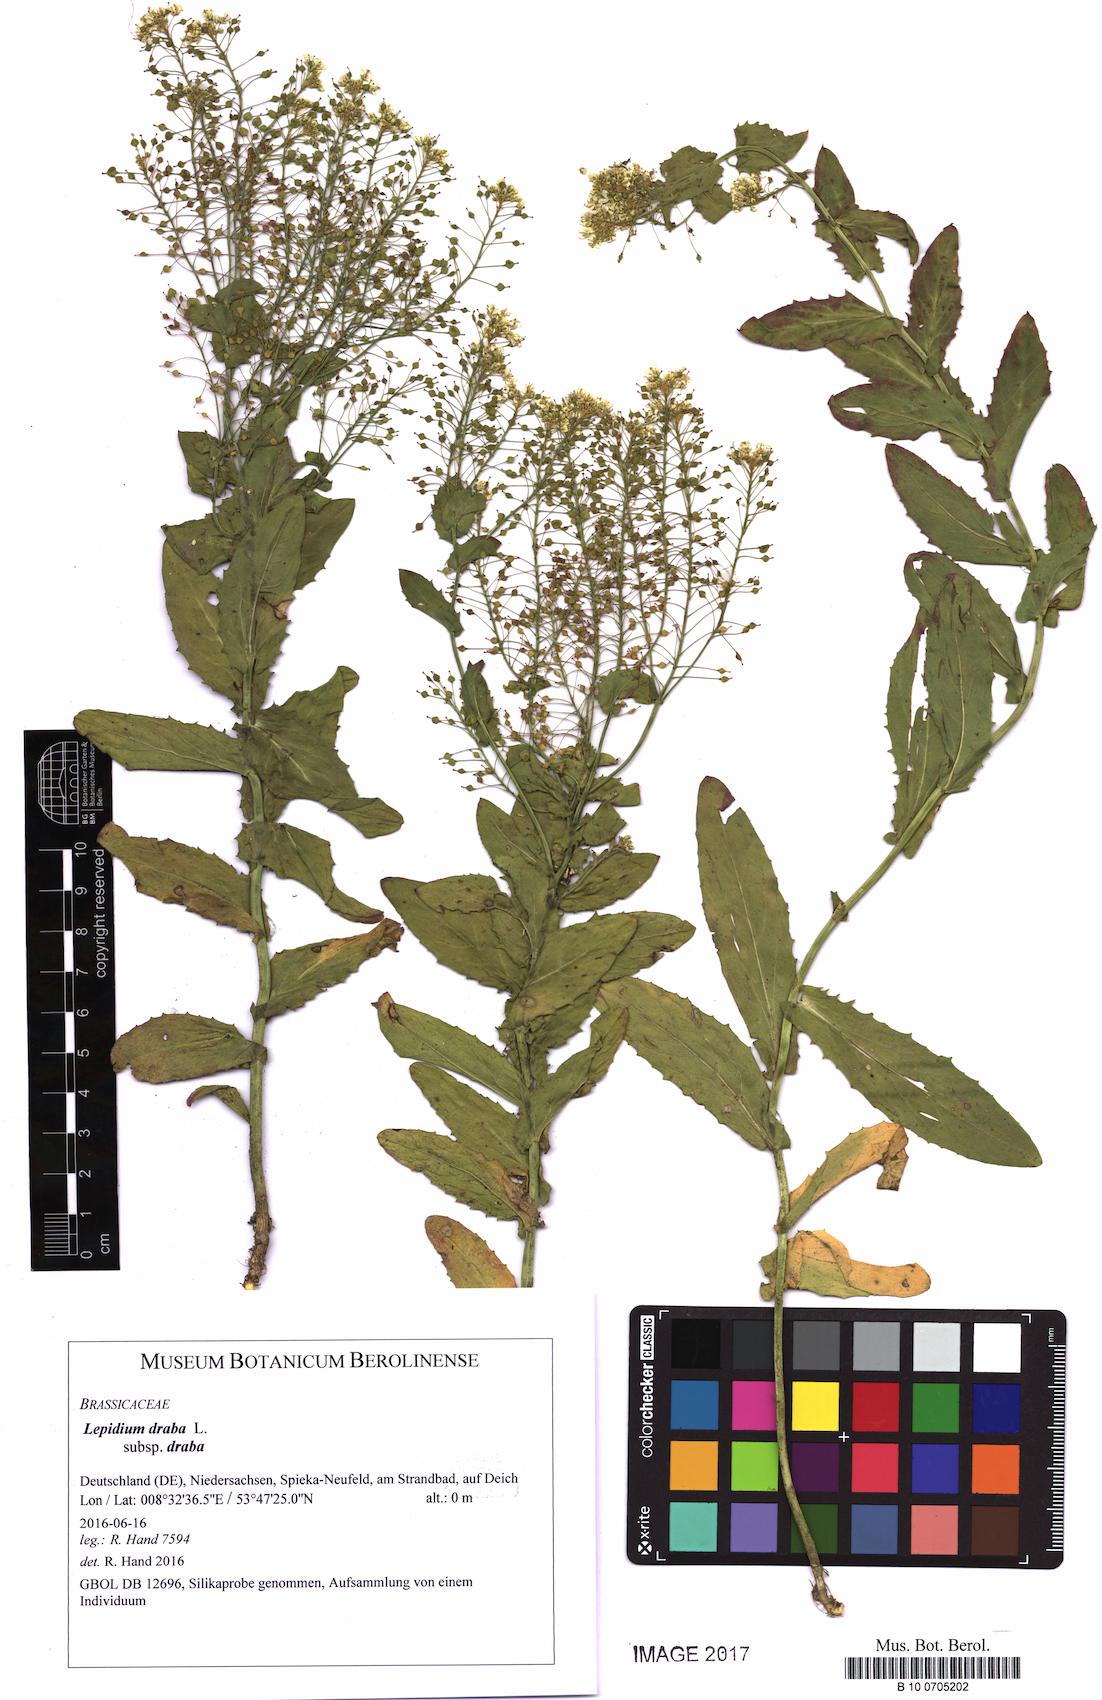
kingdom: Plantae
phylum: Tracheophyta
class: Magnoliopsida
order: Brassicales
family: Brassicaceae
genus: Lepidium
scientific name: Lepidium draba
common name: Hoary cress
